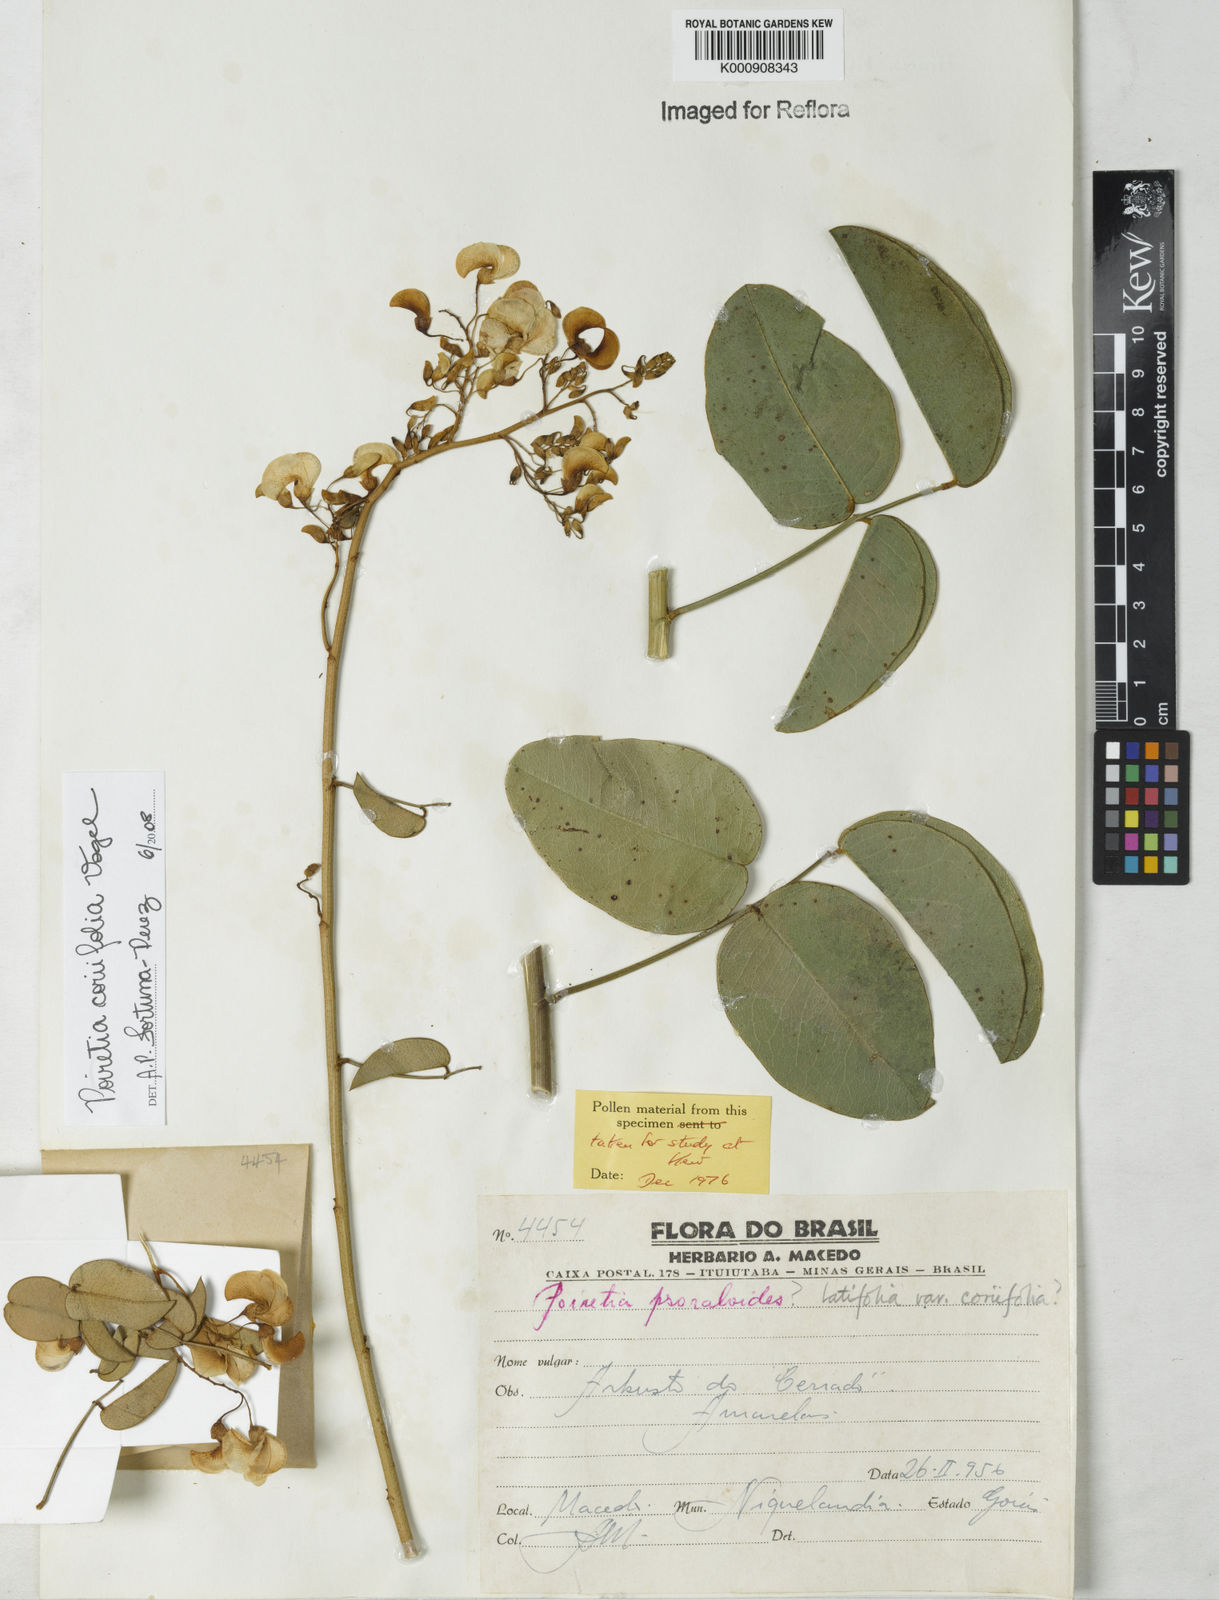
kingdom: Plantae
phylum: Tracheophyta
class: Magnoliopsida
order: Fabales
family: Fabaceae
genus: Poiretia
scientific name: Poiretia coriifolia
